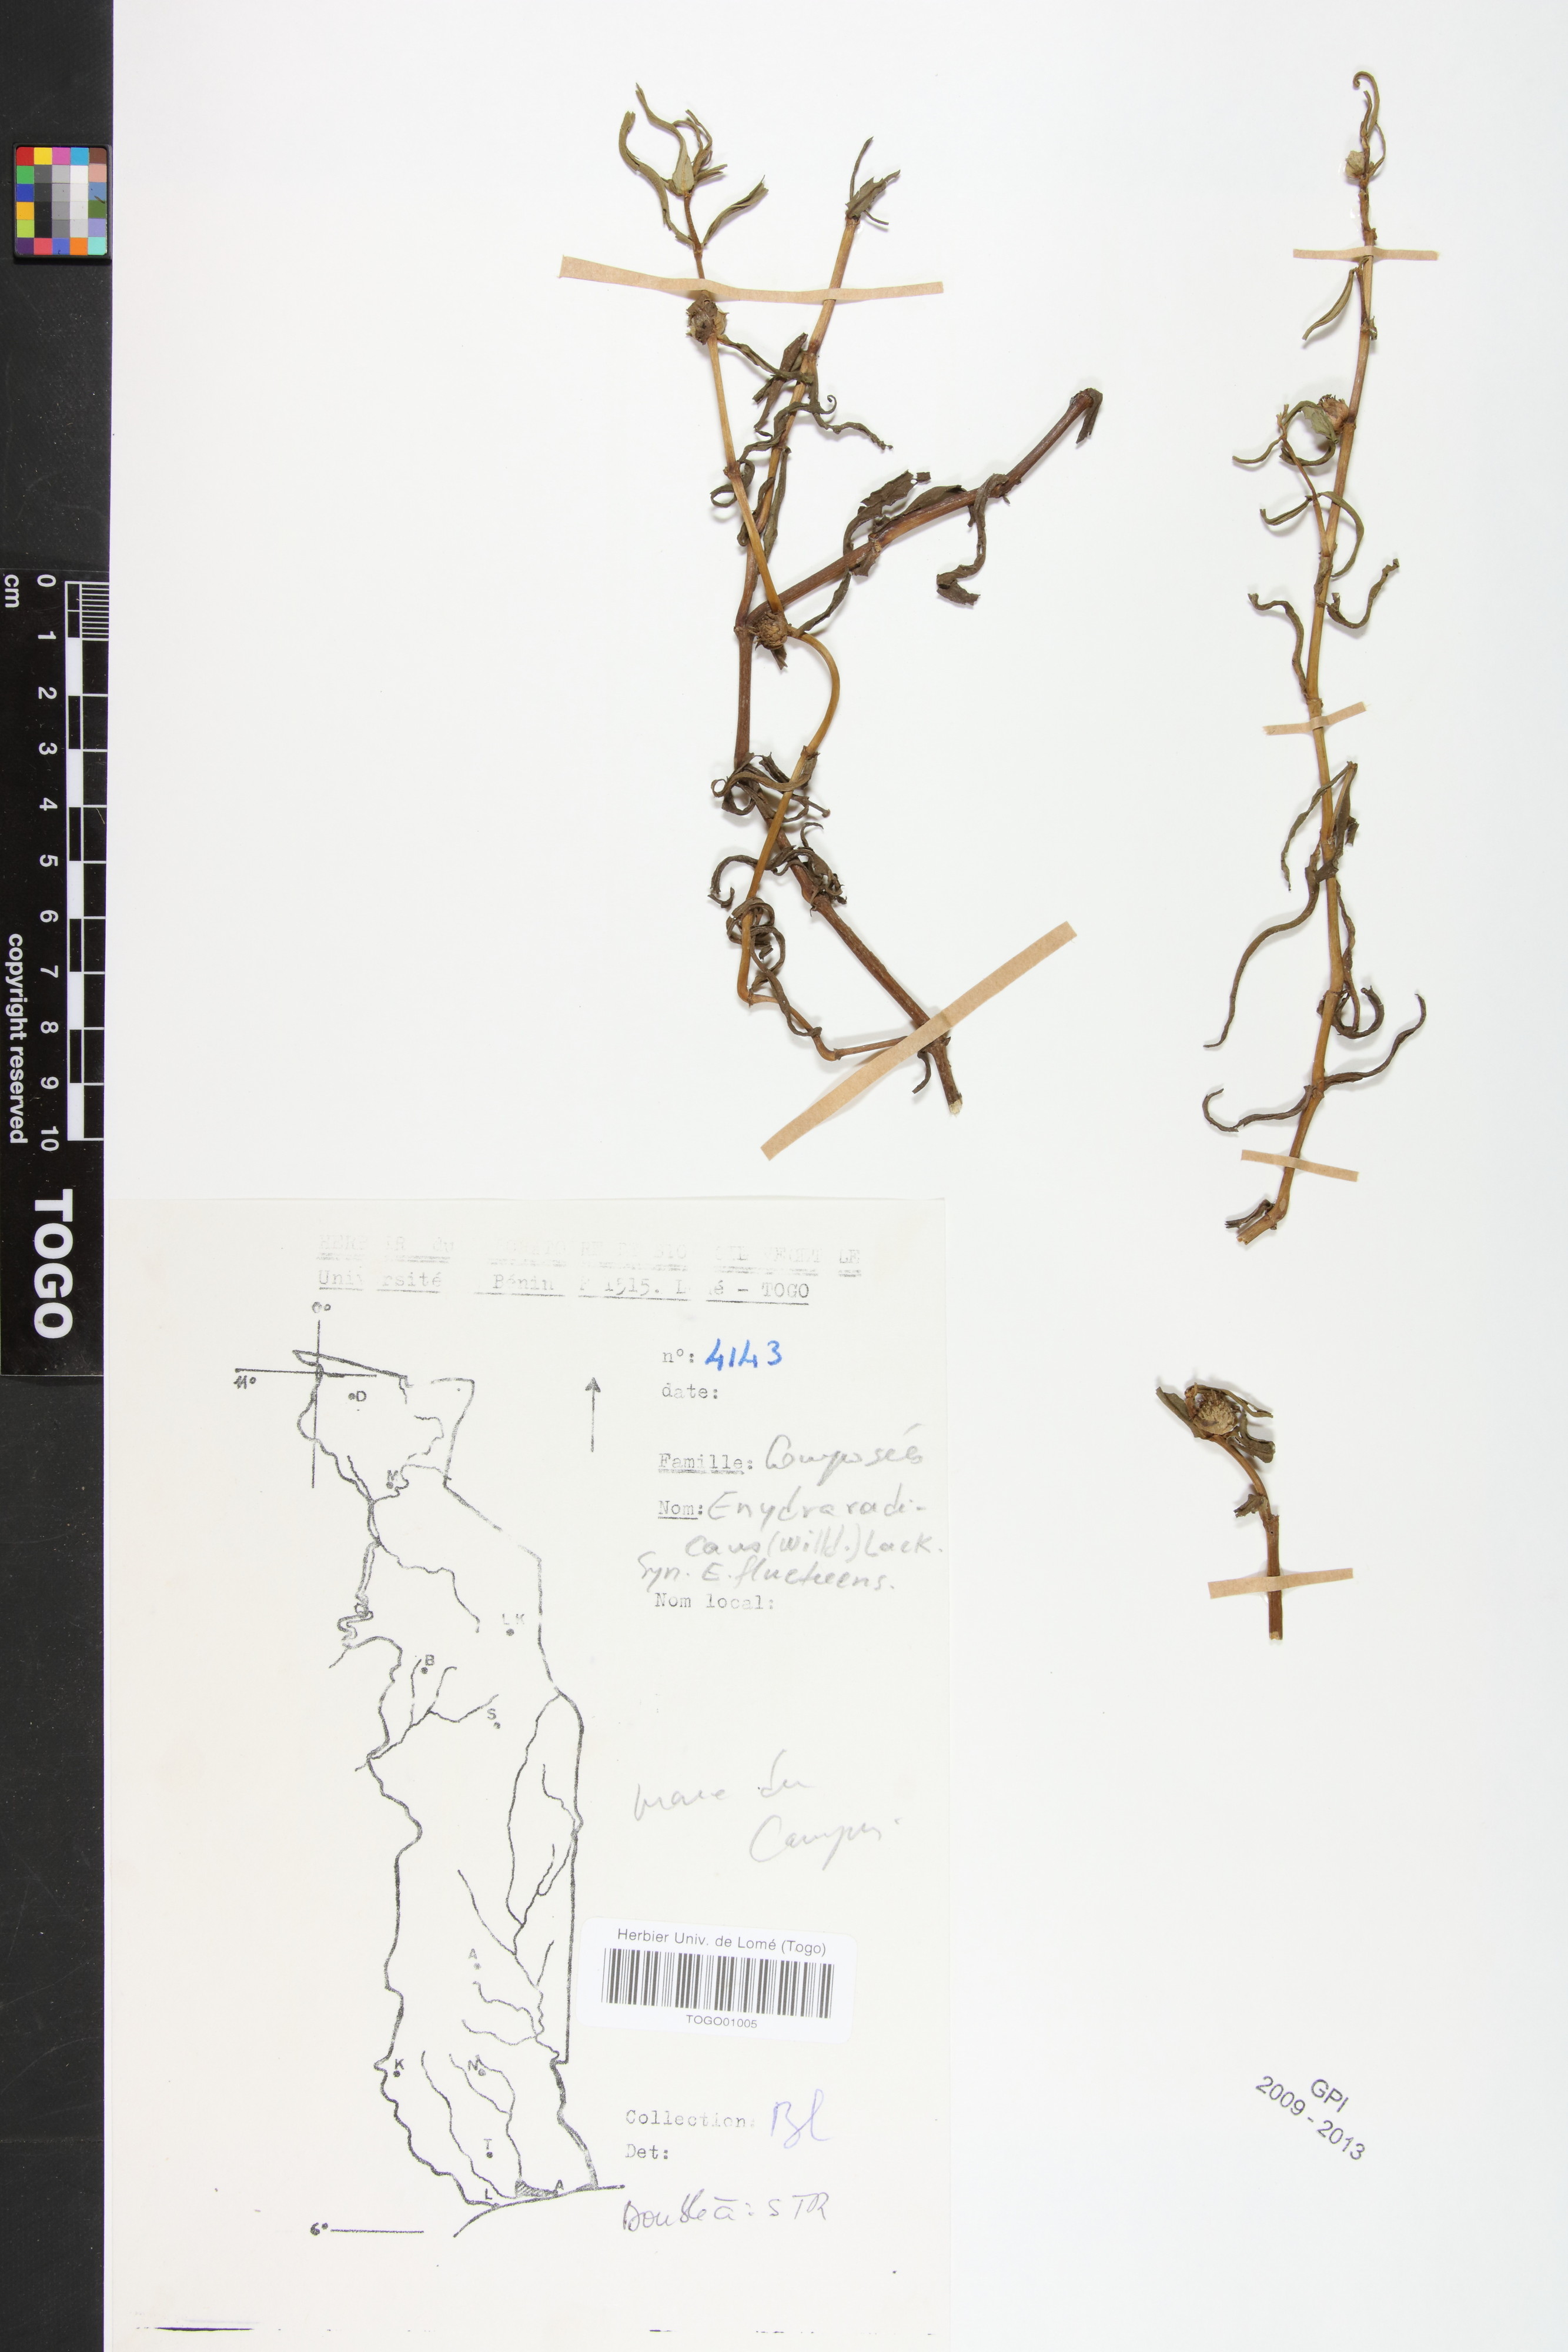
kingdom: Plantae
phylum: Tracheophyta
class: Magnoliopsida
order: Asterales
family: Asteraceae
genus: Enydra
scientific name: Enydra radicans
